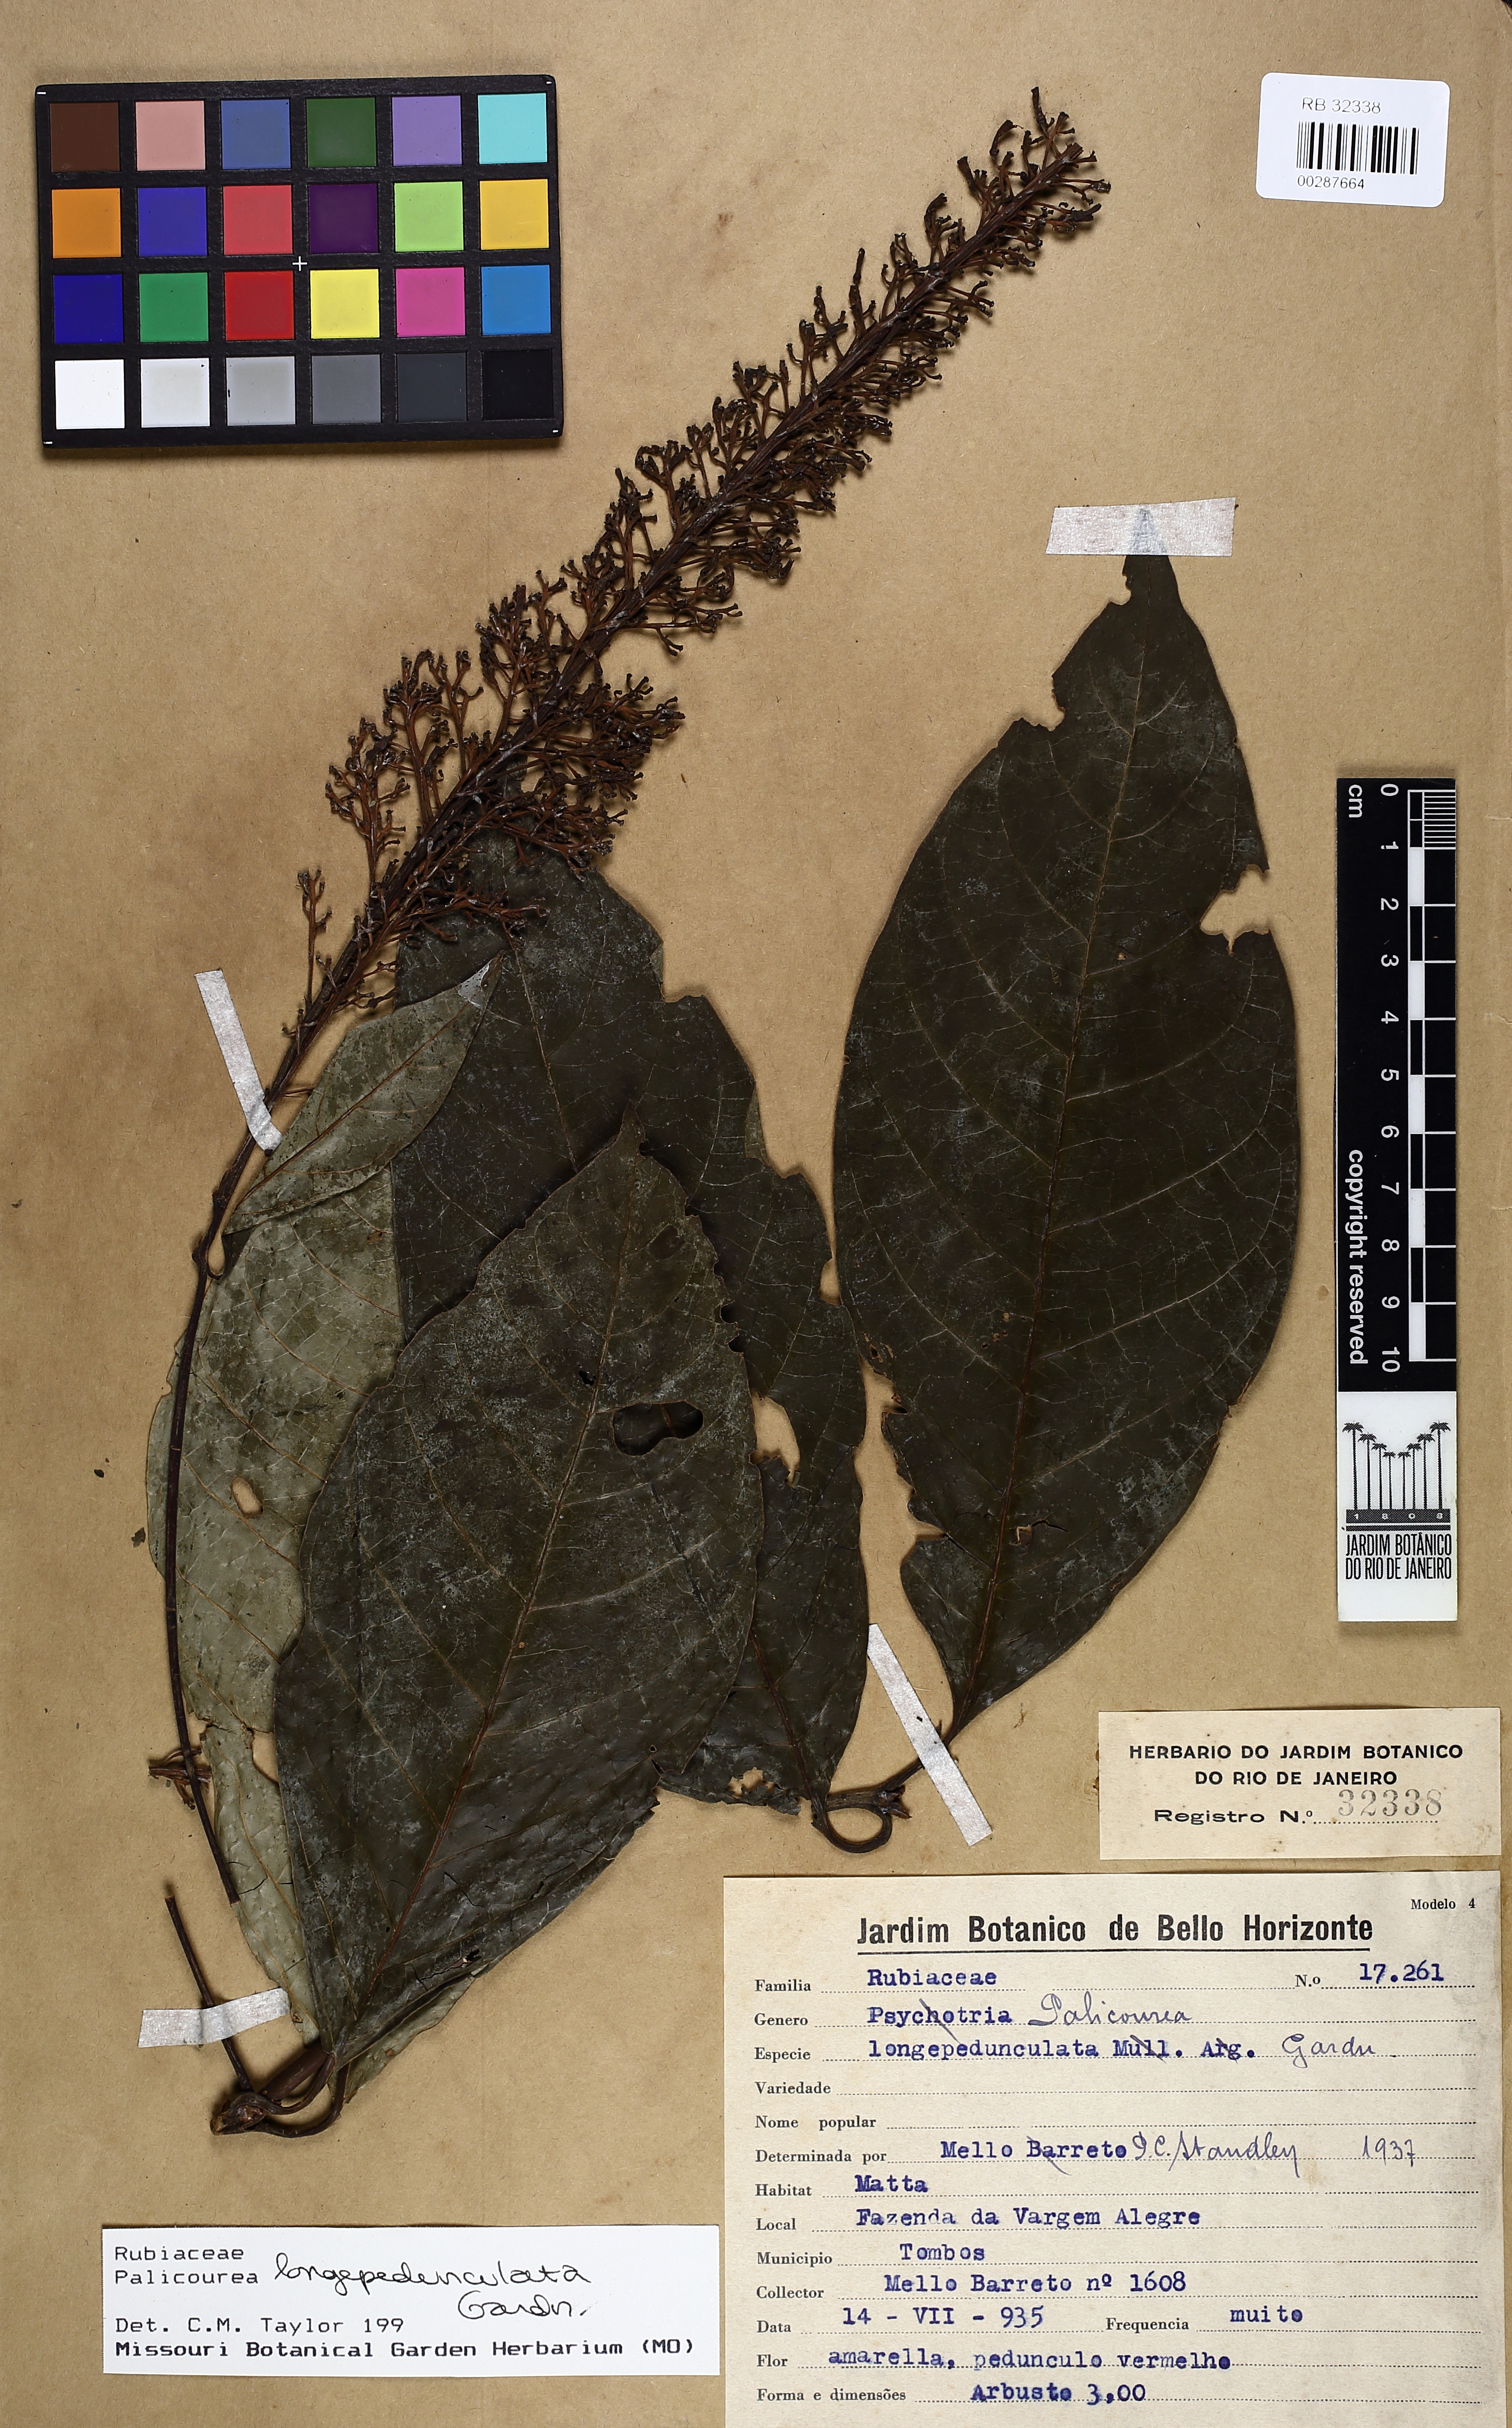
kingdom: Plantae
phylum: Tracheophyta
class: Magnoliopsida
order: Piperales
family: Aristolochiaceae
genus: Aristolochia
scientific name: Aristolochia esperanzae
